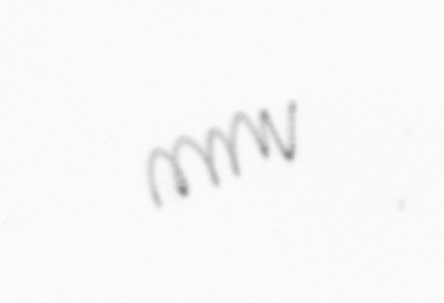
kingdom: Chromista
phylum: Ochrophyta
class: Bacillariophyceae
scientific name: Bacillariophyceae
